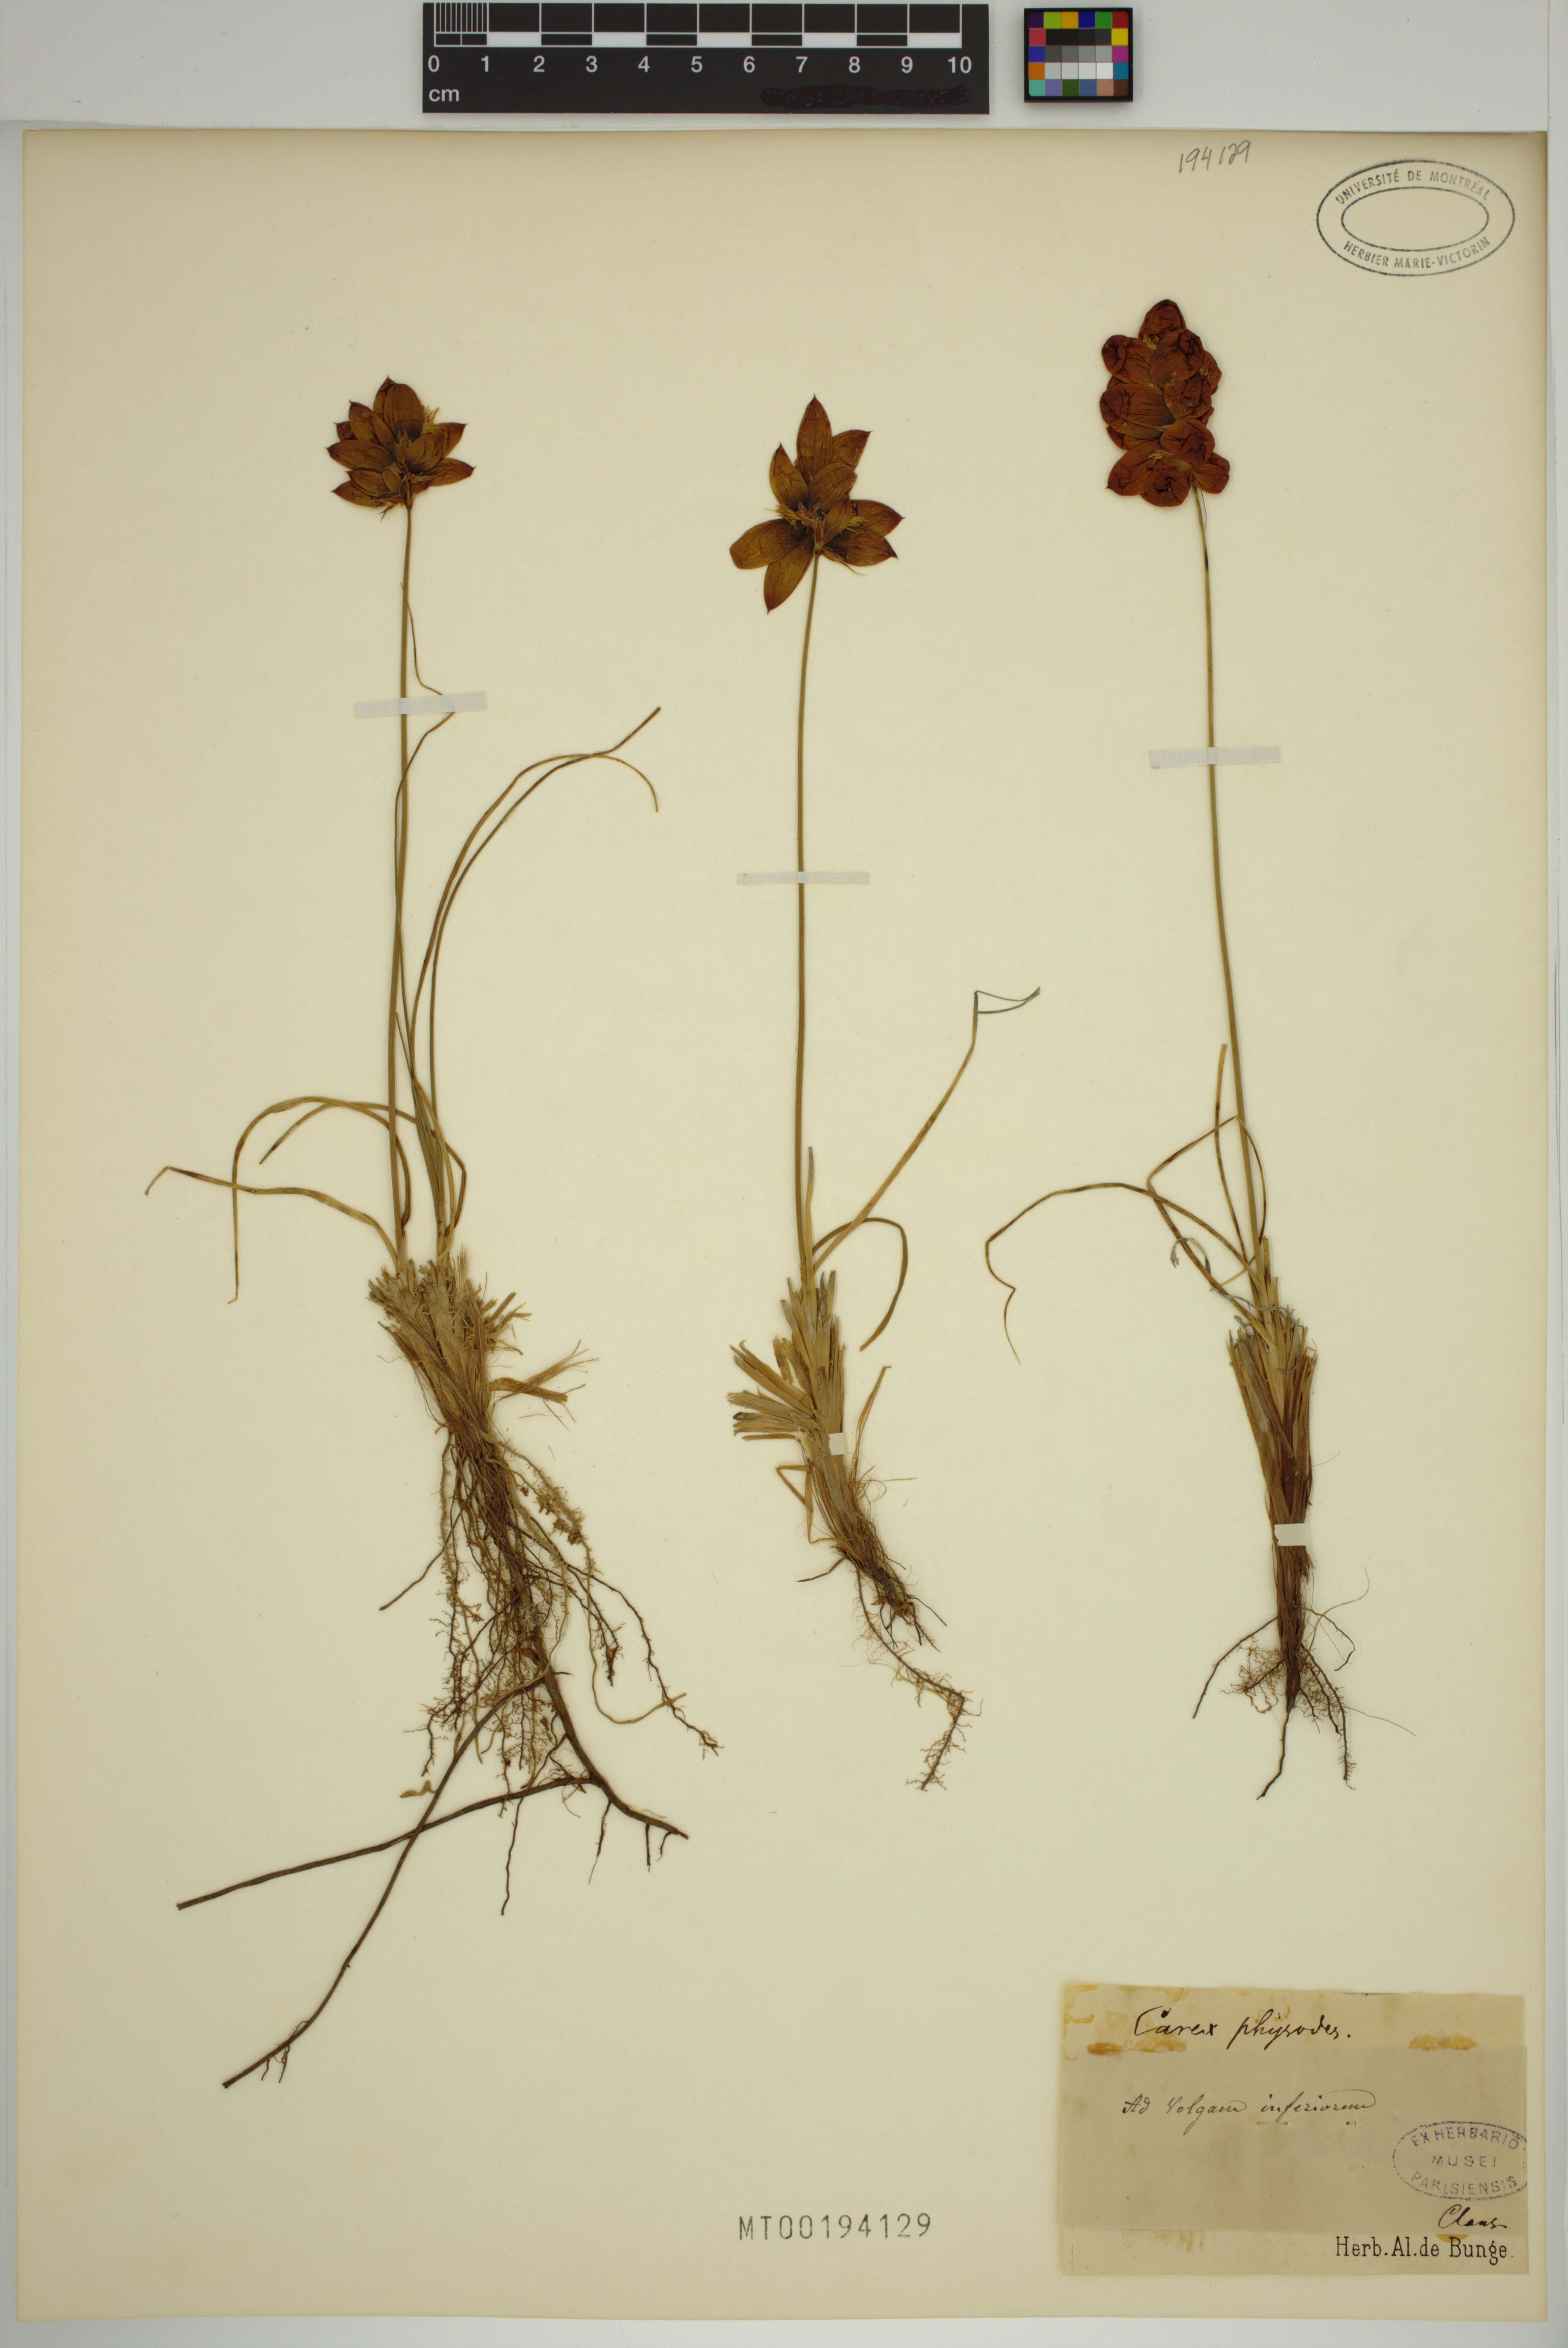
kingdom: Plantae
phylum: Tracheophyta
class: Liliopsida
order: Poales
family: Cyperaceae
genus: Carex
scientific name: Carex physodes
